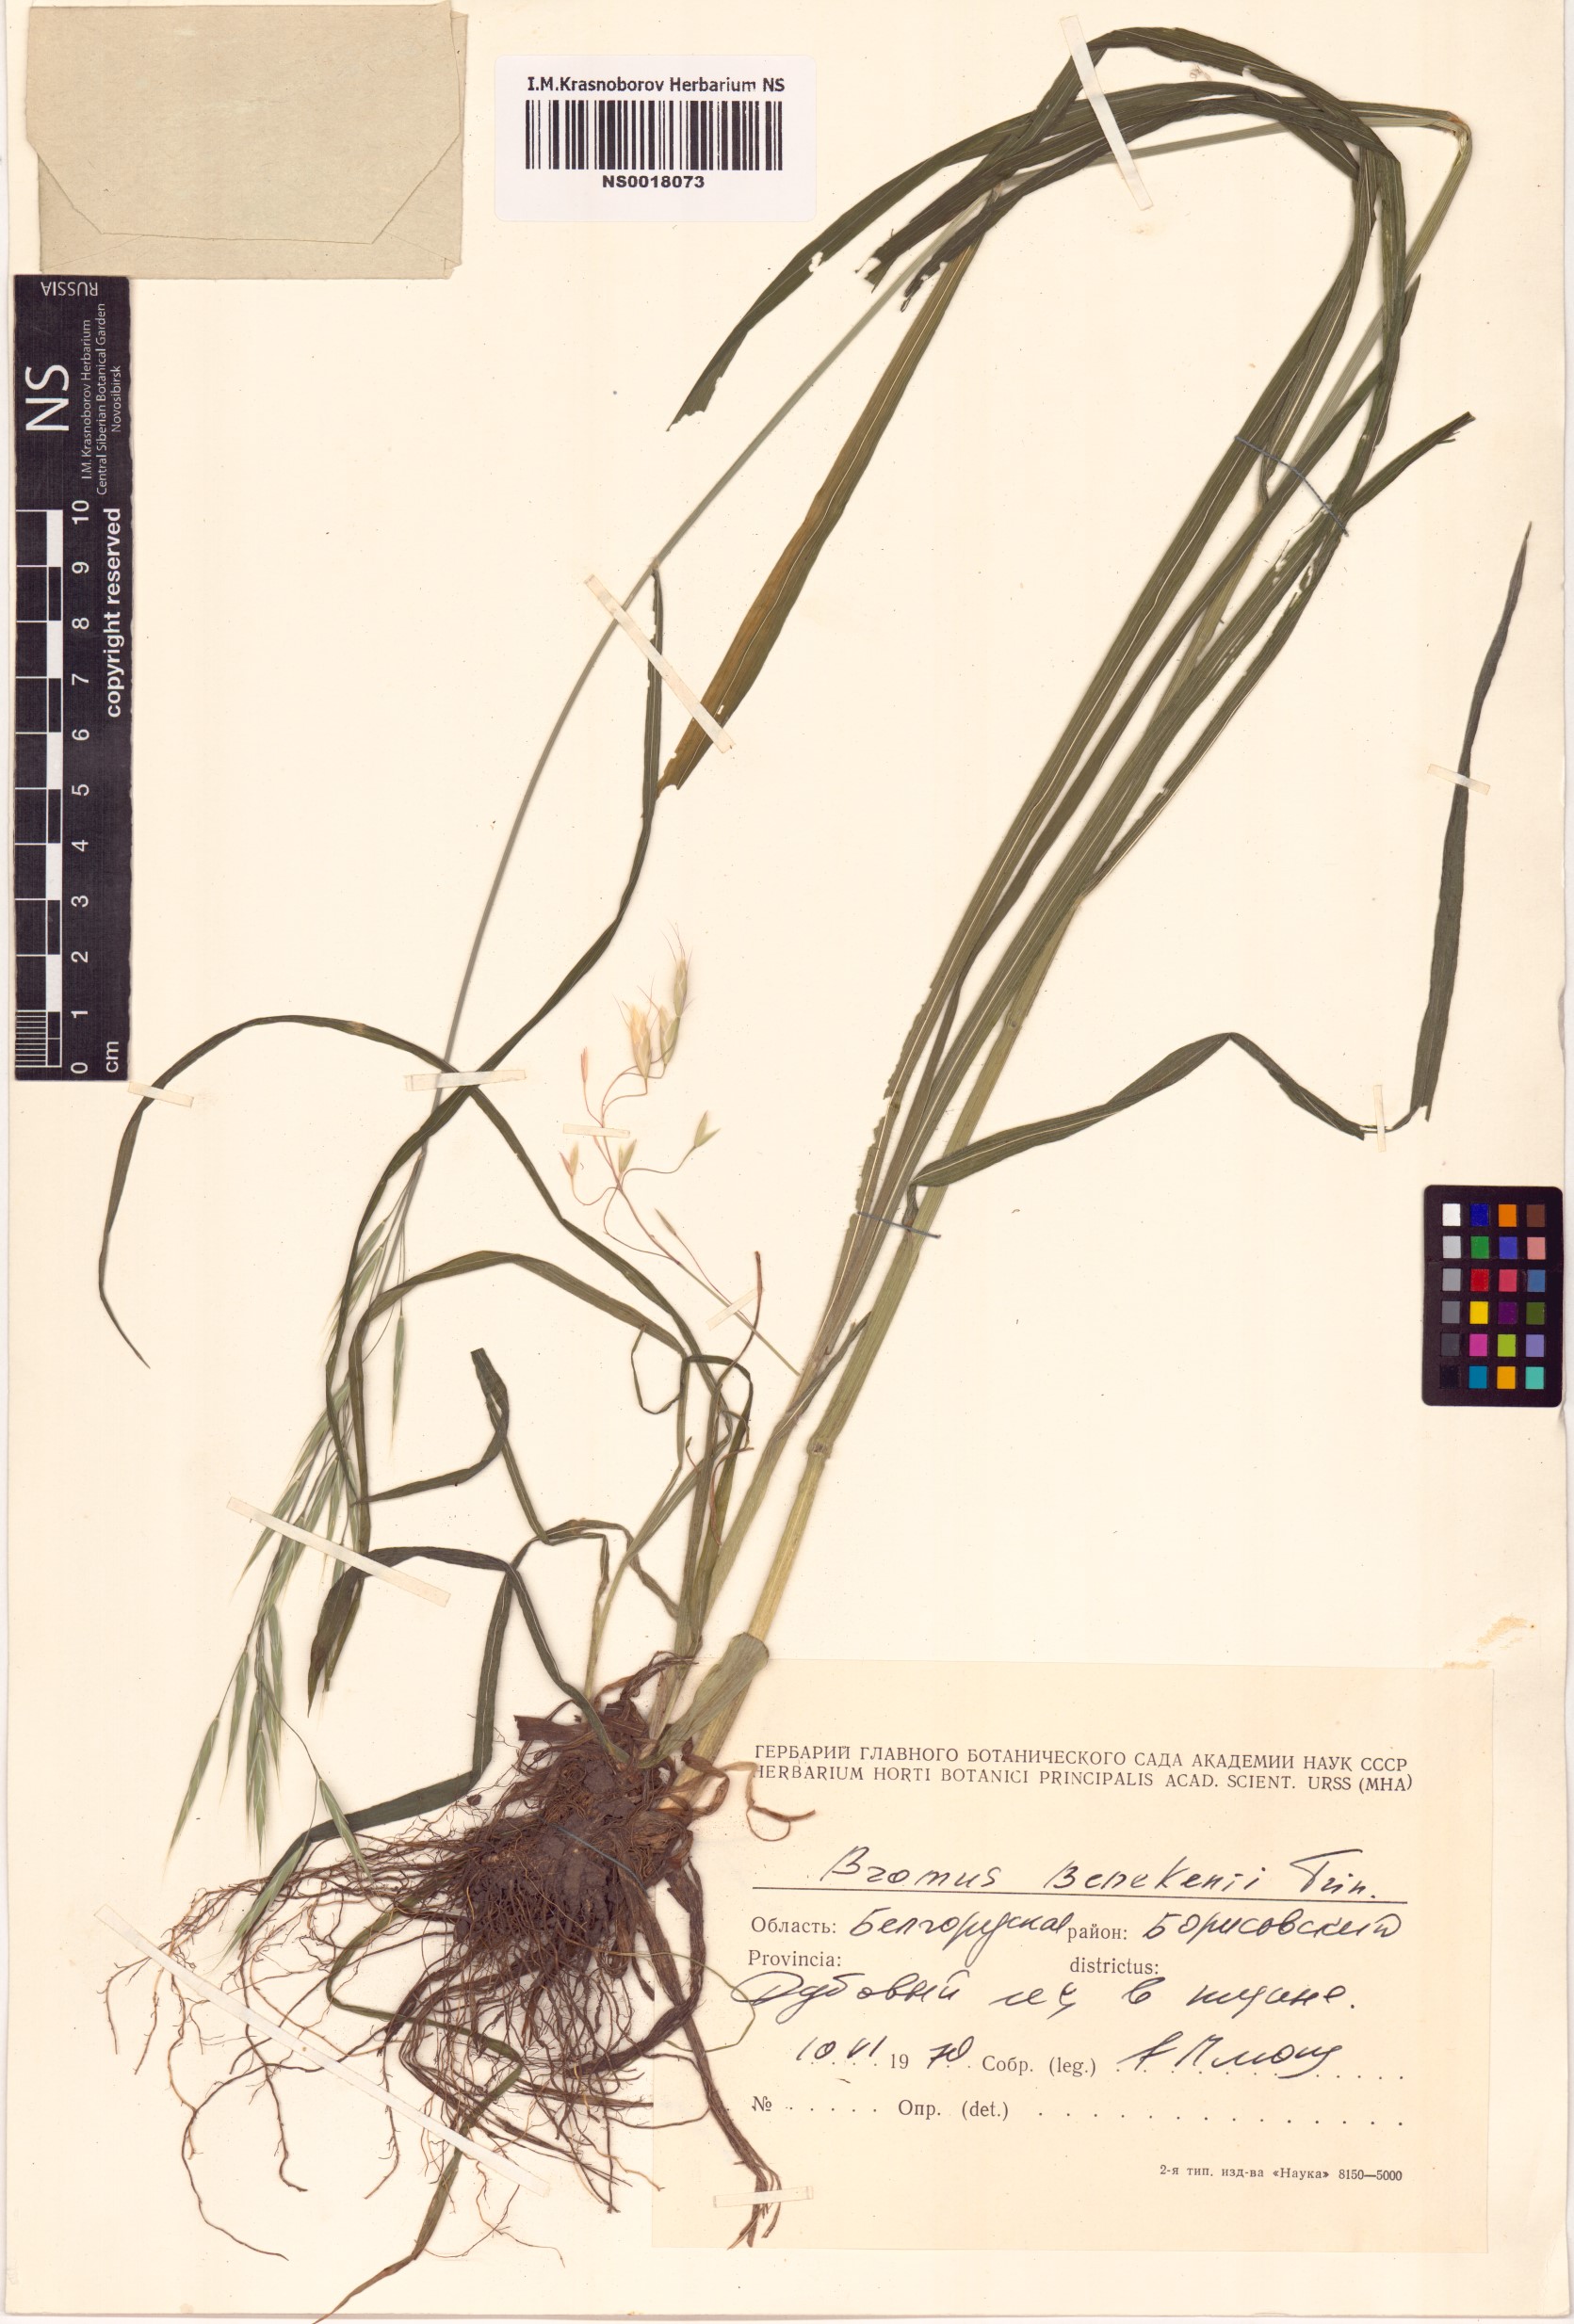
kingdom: Plantae
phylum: Tracheophyta
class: Liliopsida
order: Poales
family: Poaceae
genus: Bromus
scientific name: Bromus benekenii
